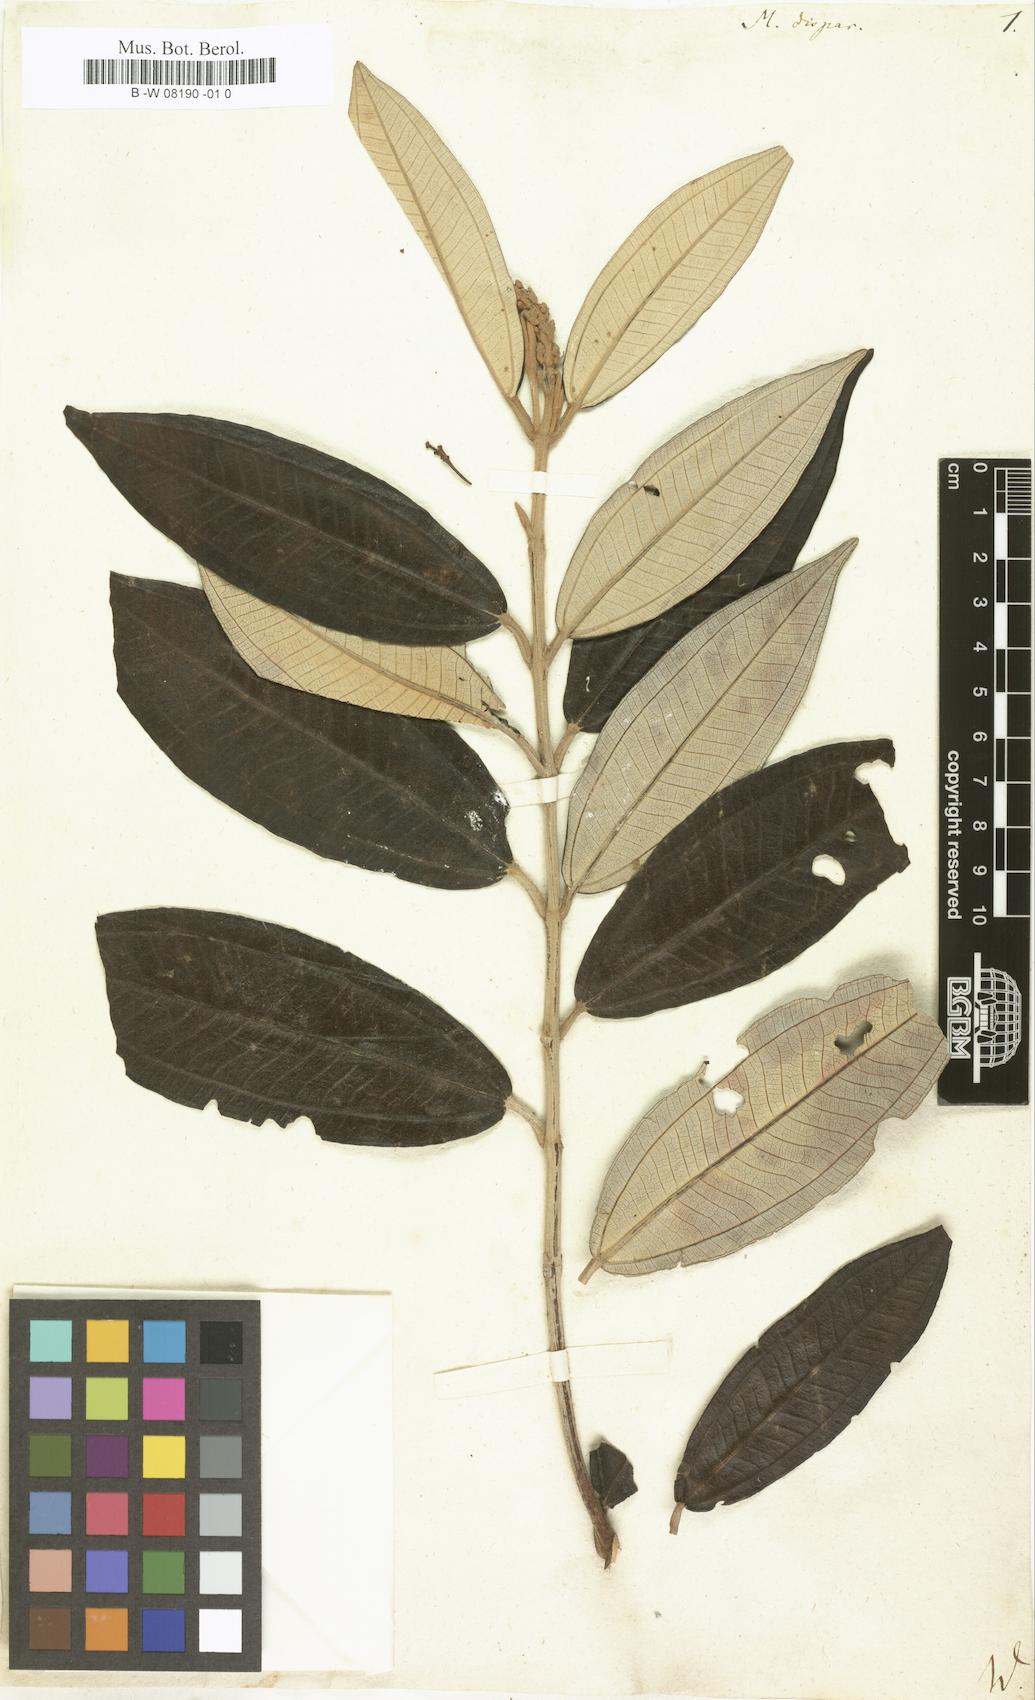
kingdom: Plantae
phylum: Tracheophyta
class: Magnoliopsida
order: Myrtales
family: Melastomataceae
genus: Melastoma
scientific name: Melastoma
